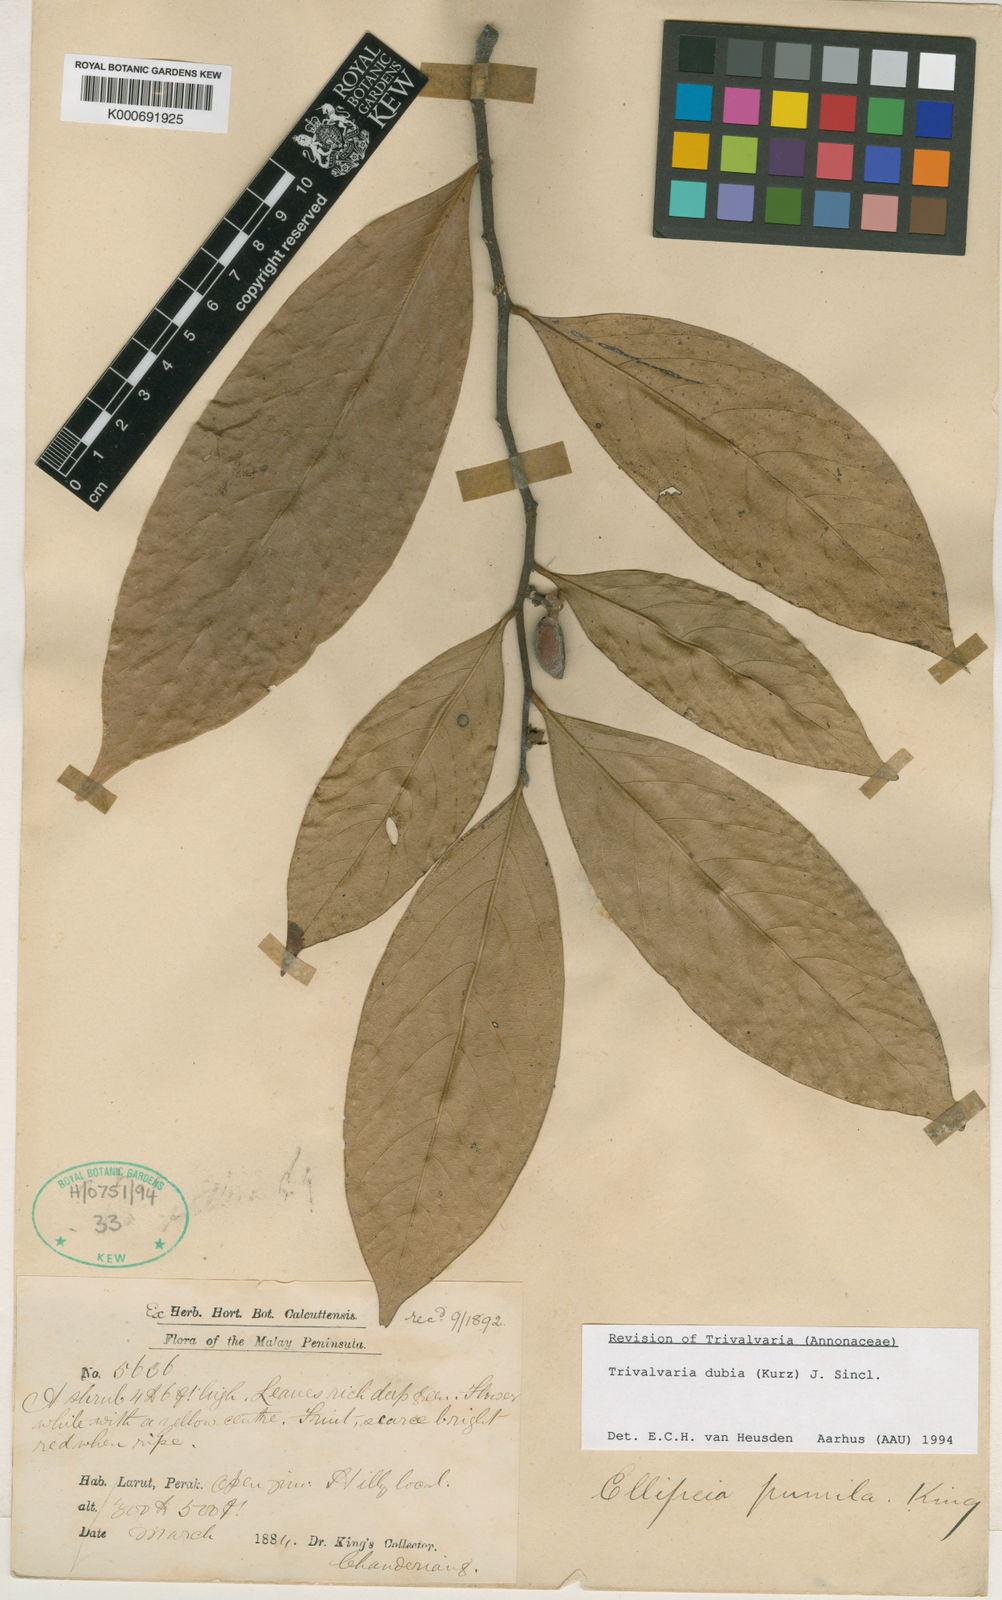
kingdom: Plantae
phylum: Tracheophyta
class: Magnoliopsida
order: Magnoliales
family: Annonaceae
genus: Trivalvaria
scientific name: Trivalvaria costata
